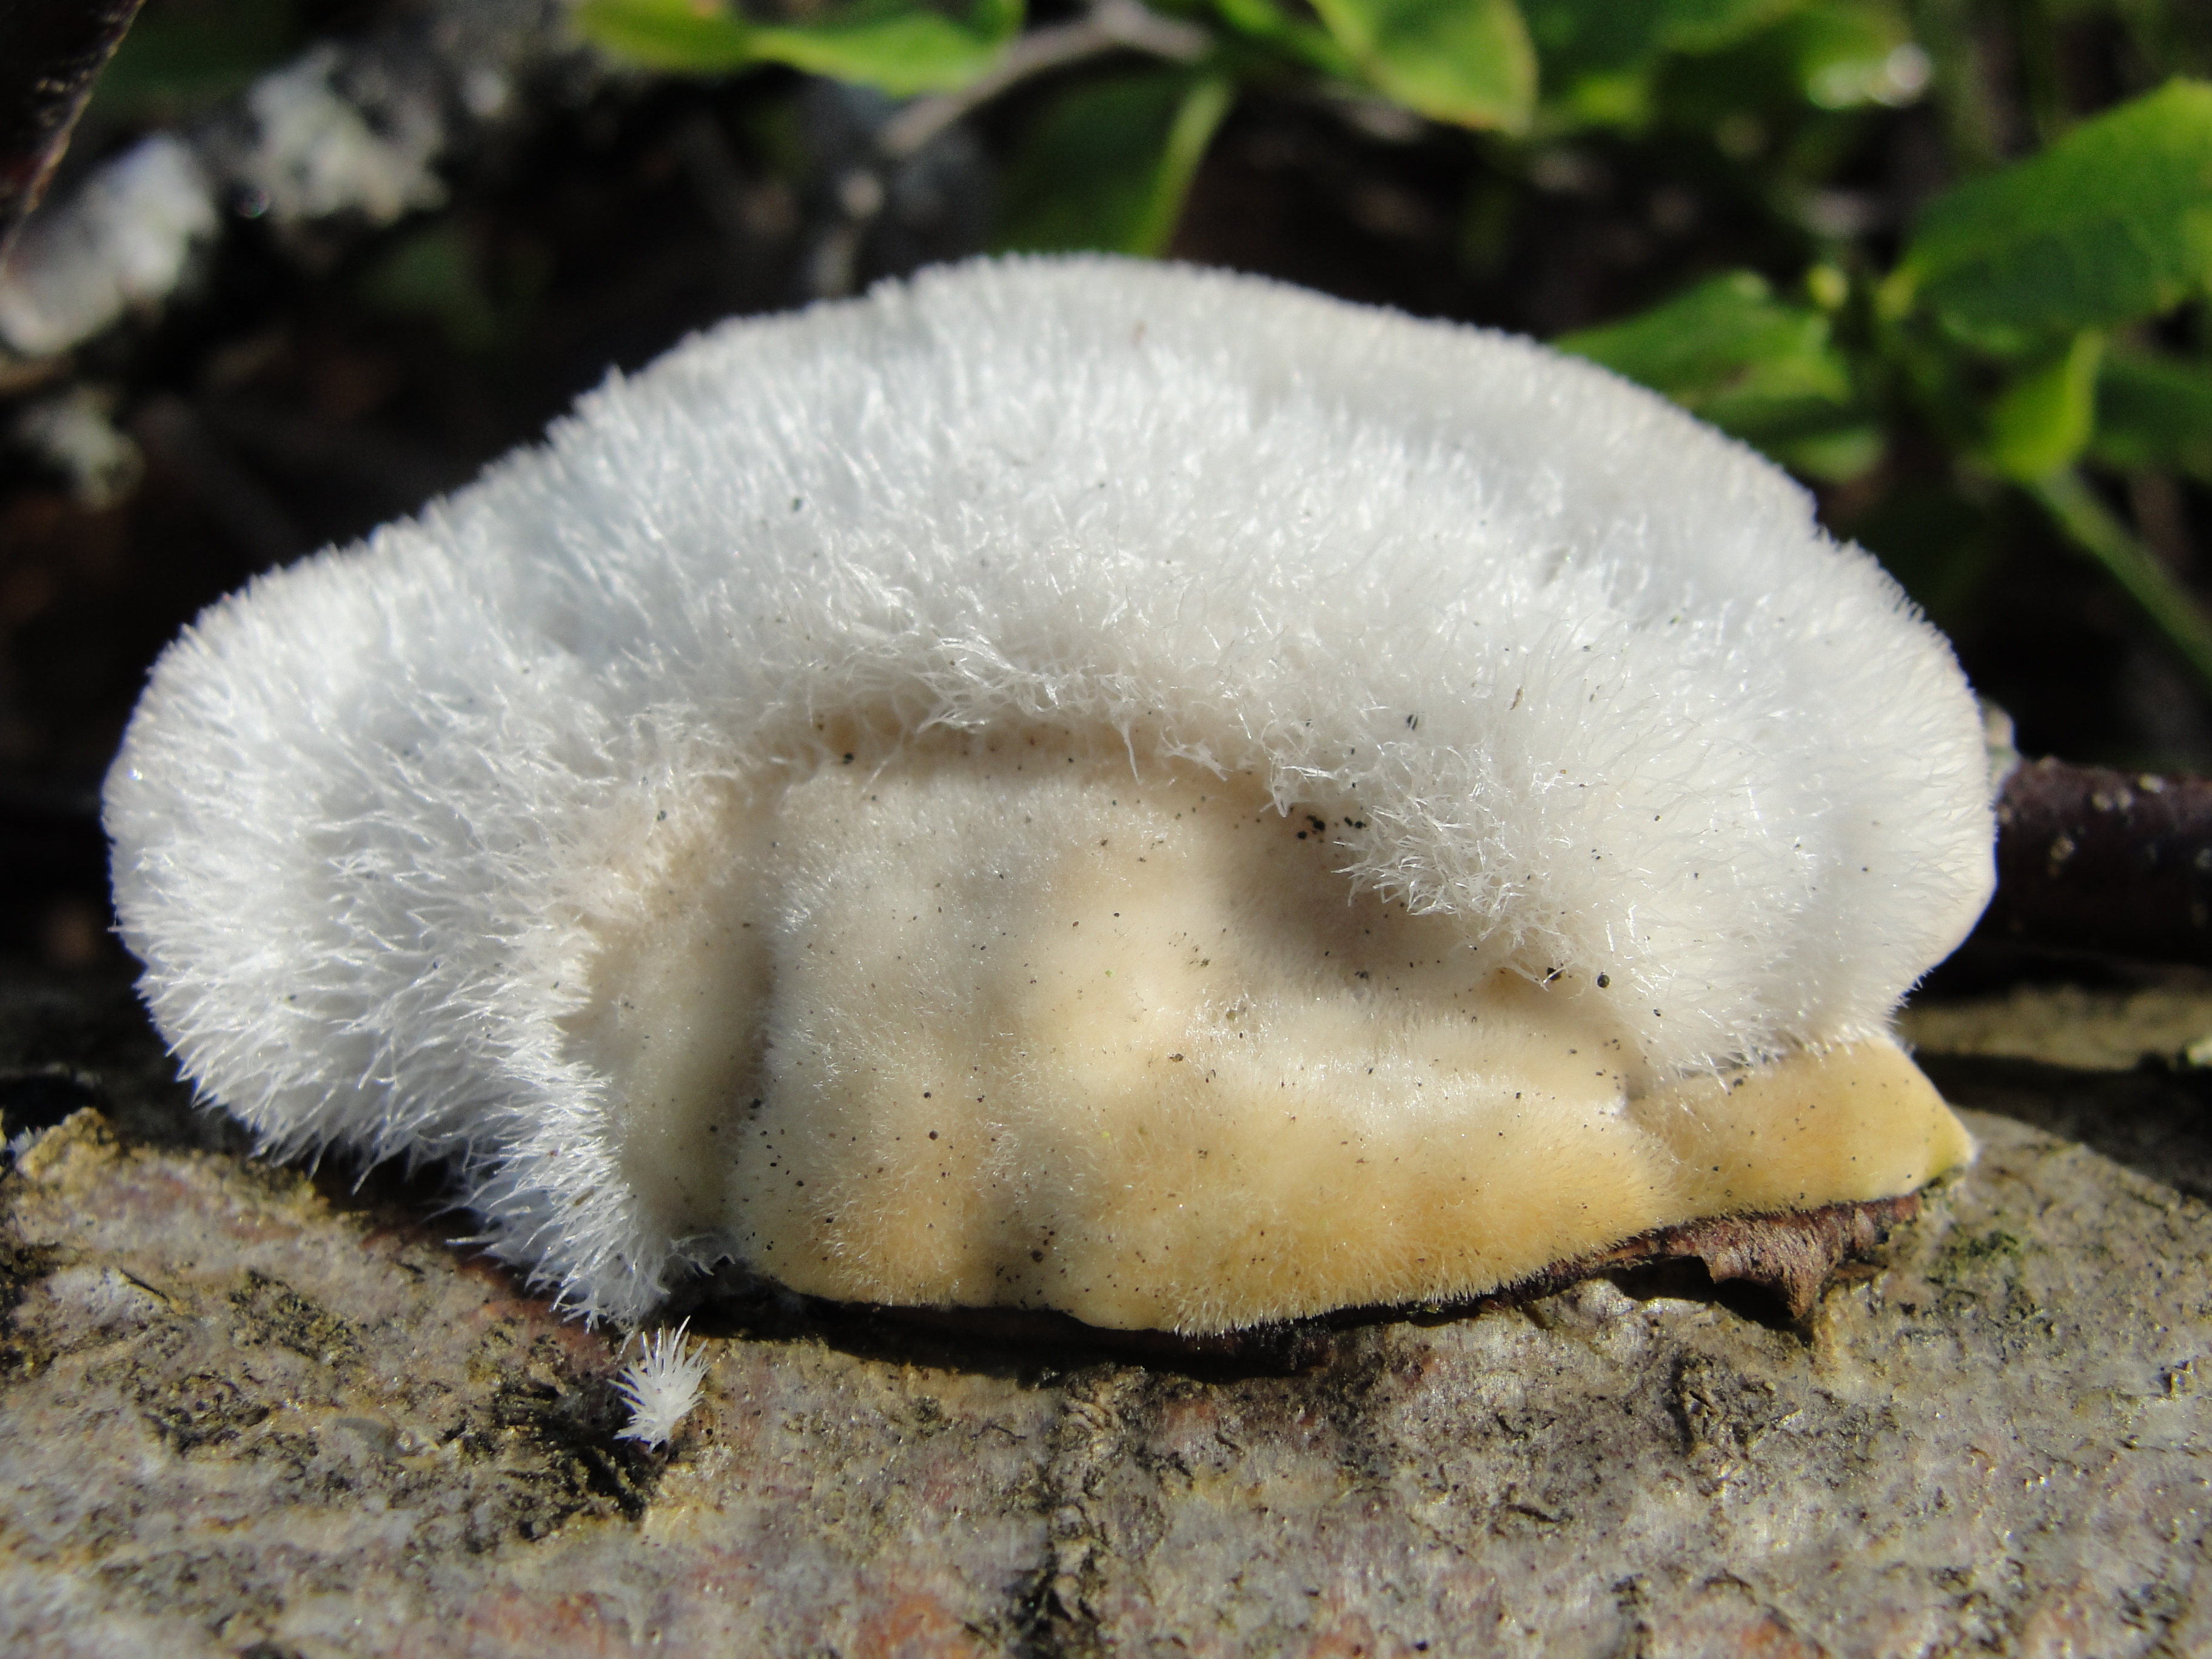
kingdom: Fungi
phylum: Basidiomycota
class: Agaricomycetes
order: Polyporales
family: Polyporaceae
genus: Trametes
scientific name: Trametes hirsuta
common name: Hairy bracket
